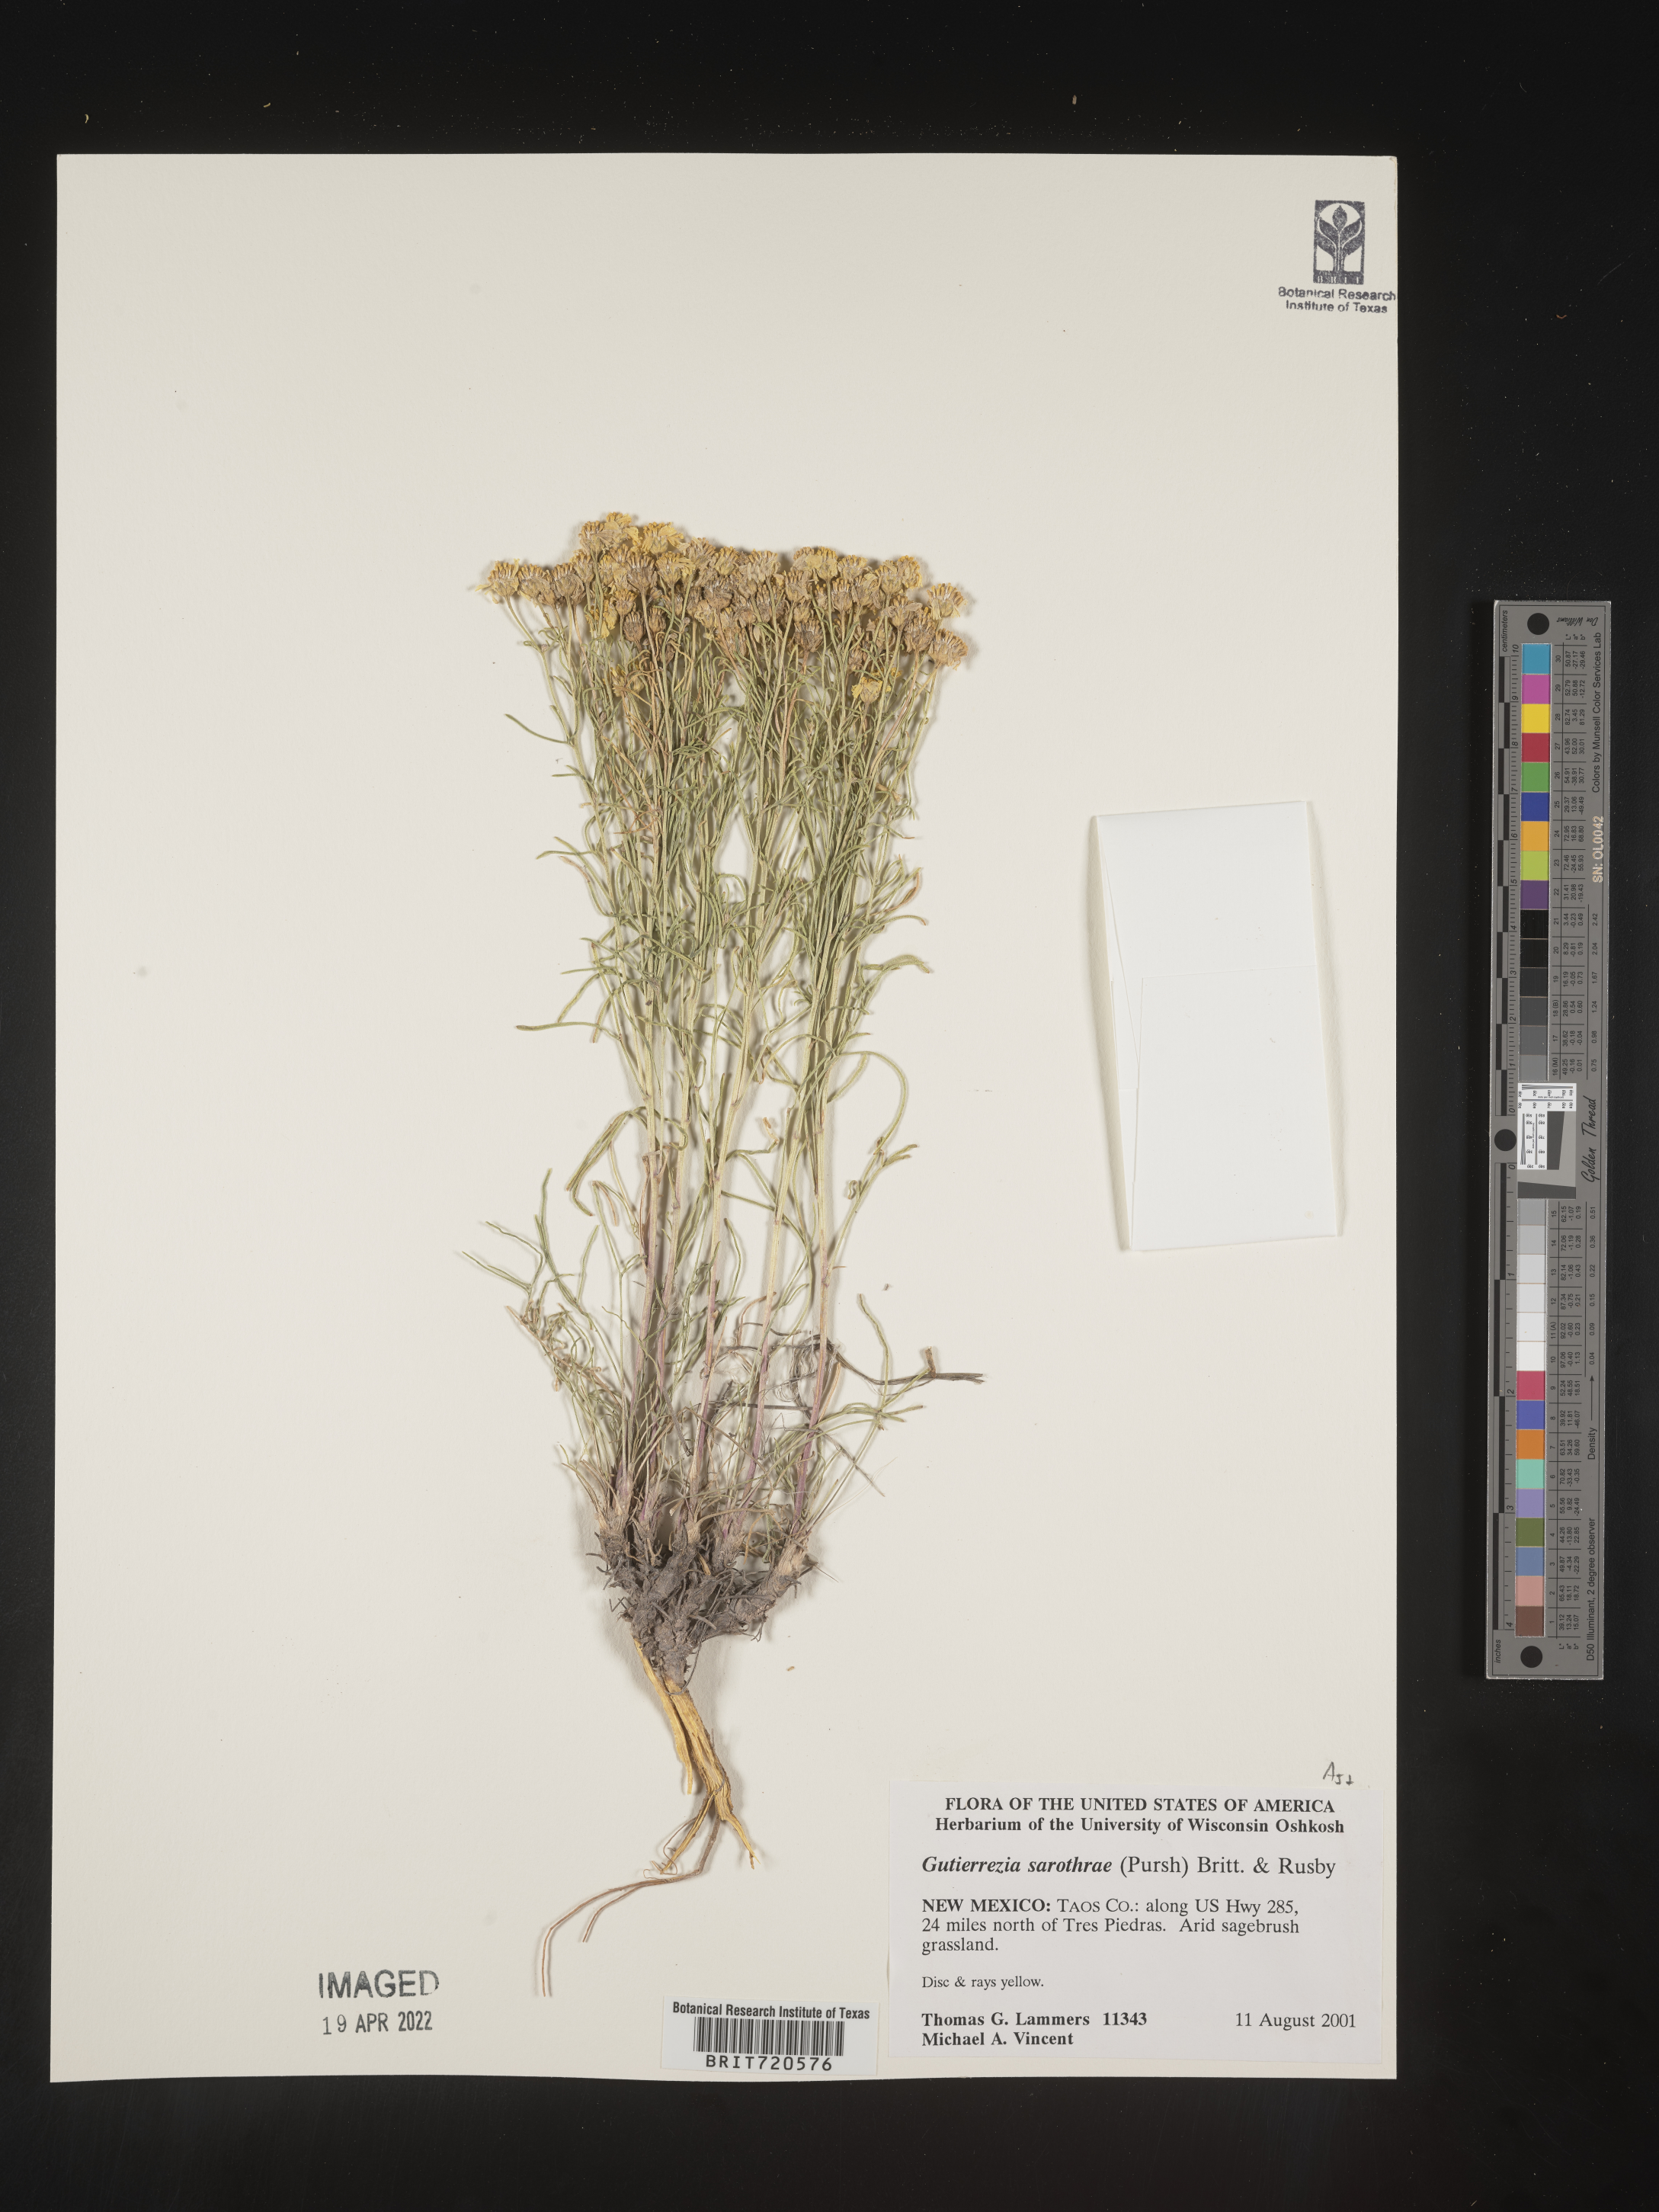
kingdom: Plantae
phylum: Tracheophyta
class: Magnoliopsida
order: Asterales
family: Asteraceae
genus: Gutierrezia
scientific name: Gutierrezia sarothrae
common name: Broom snakeweed
